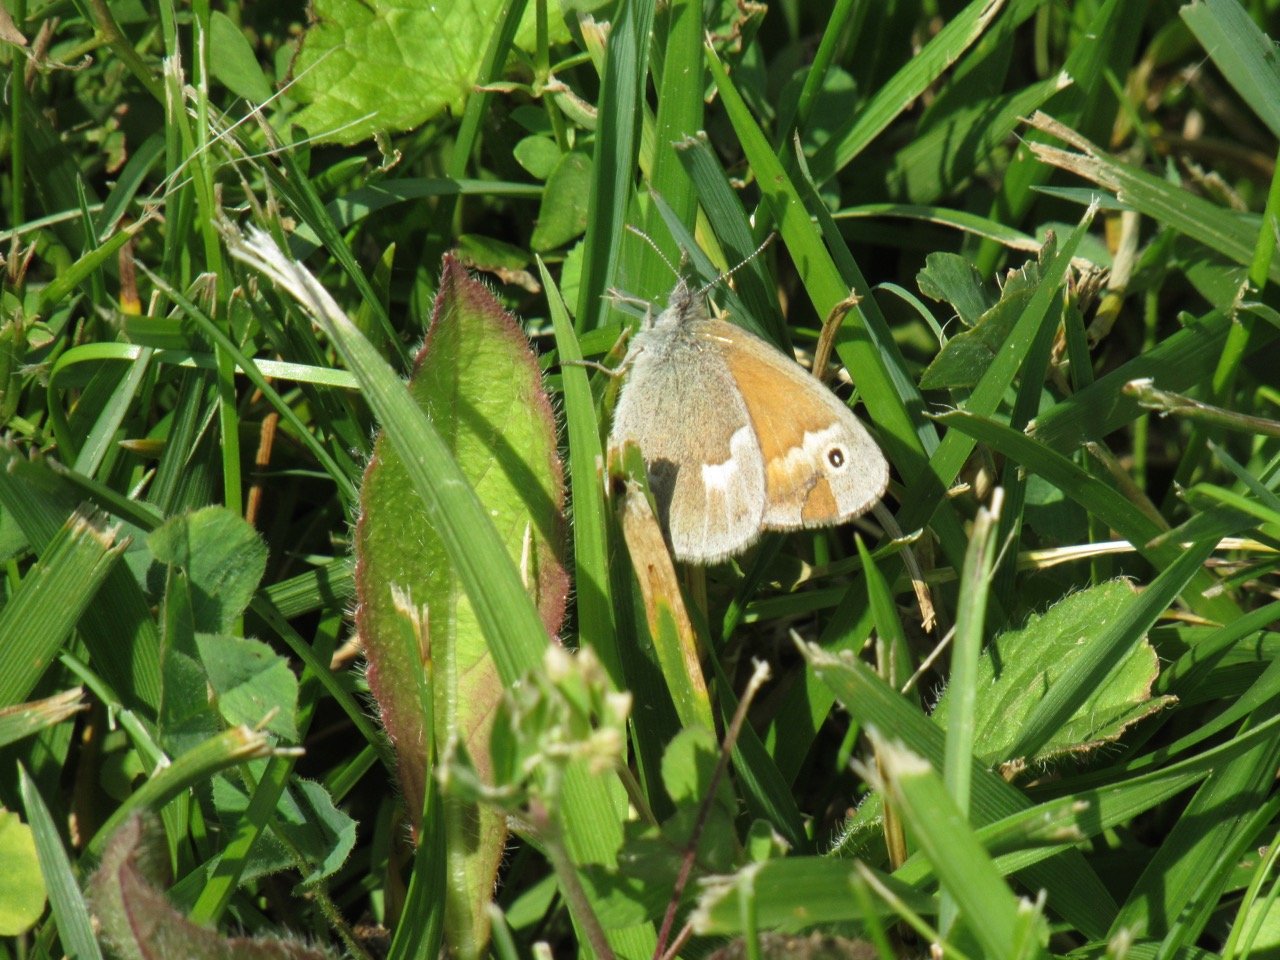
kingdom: Animalia
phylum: Arthropoda
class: Insecta
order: Lepidoptera
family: Nymphalidae
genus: Coenonympha
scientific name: Coenonympha tullia
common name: Large Heath
